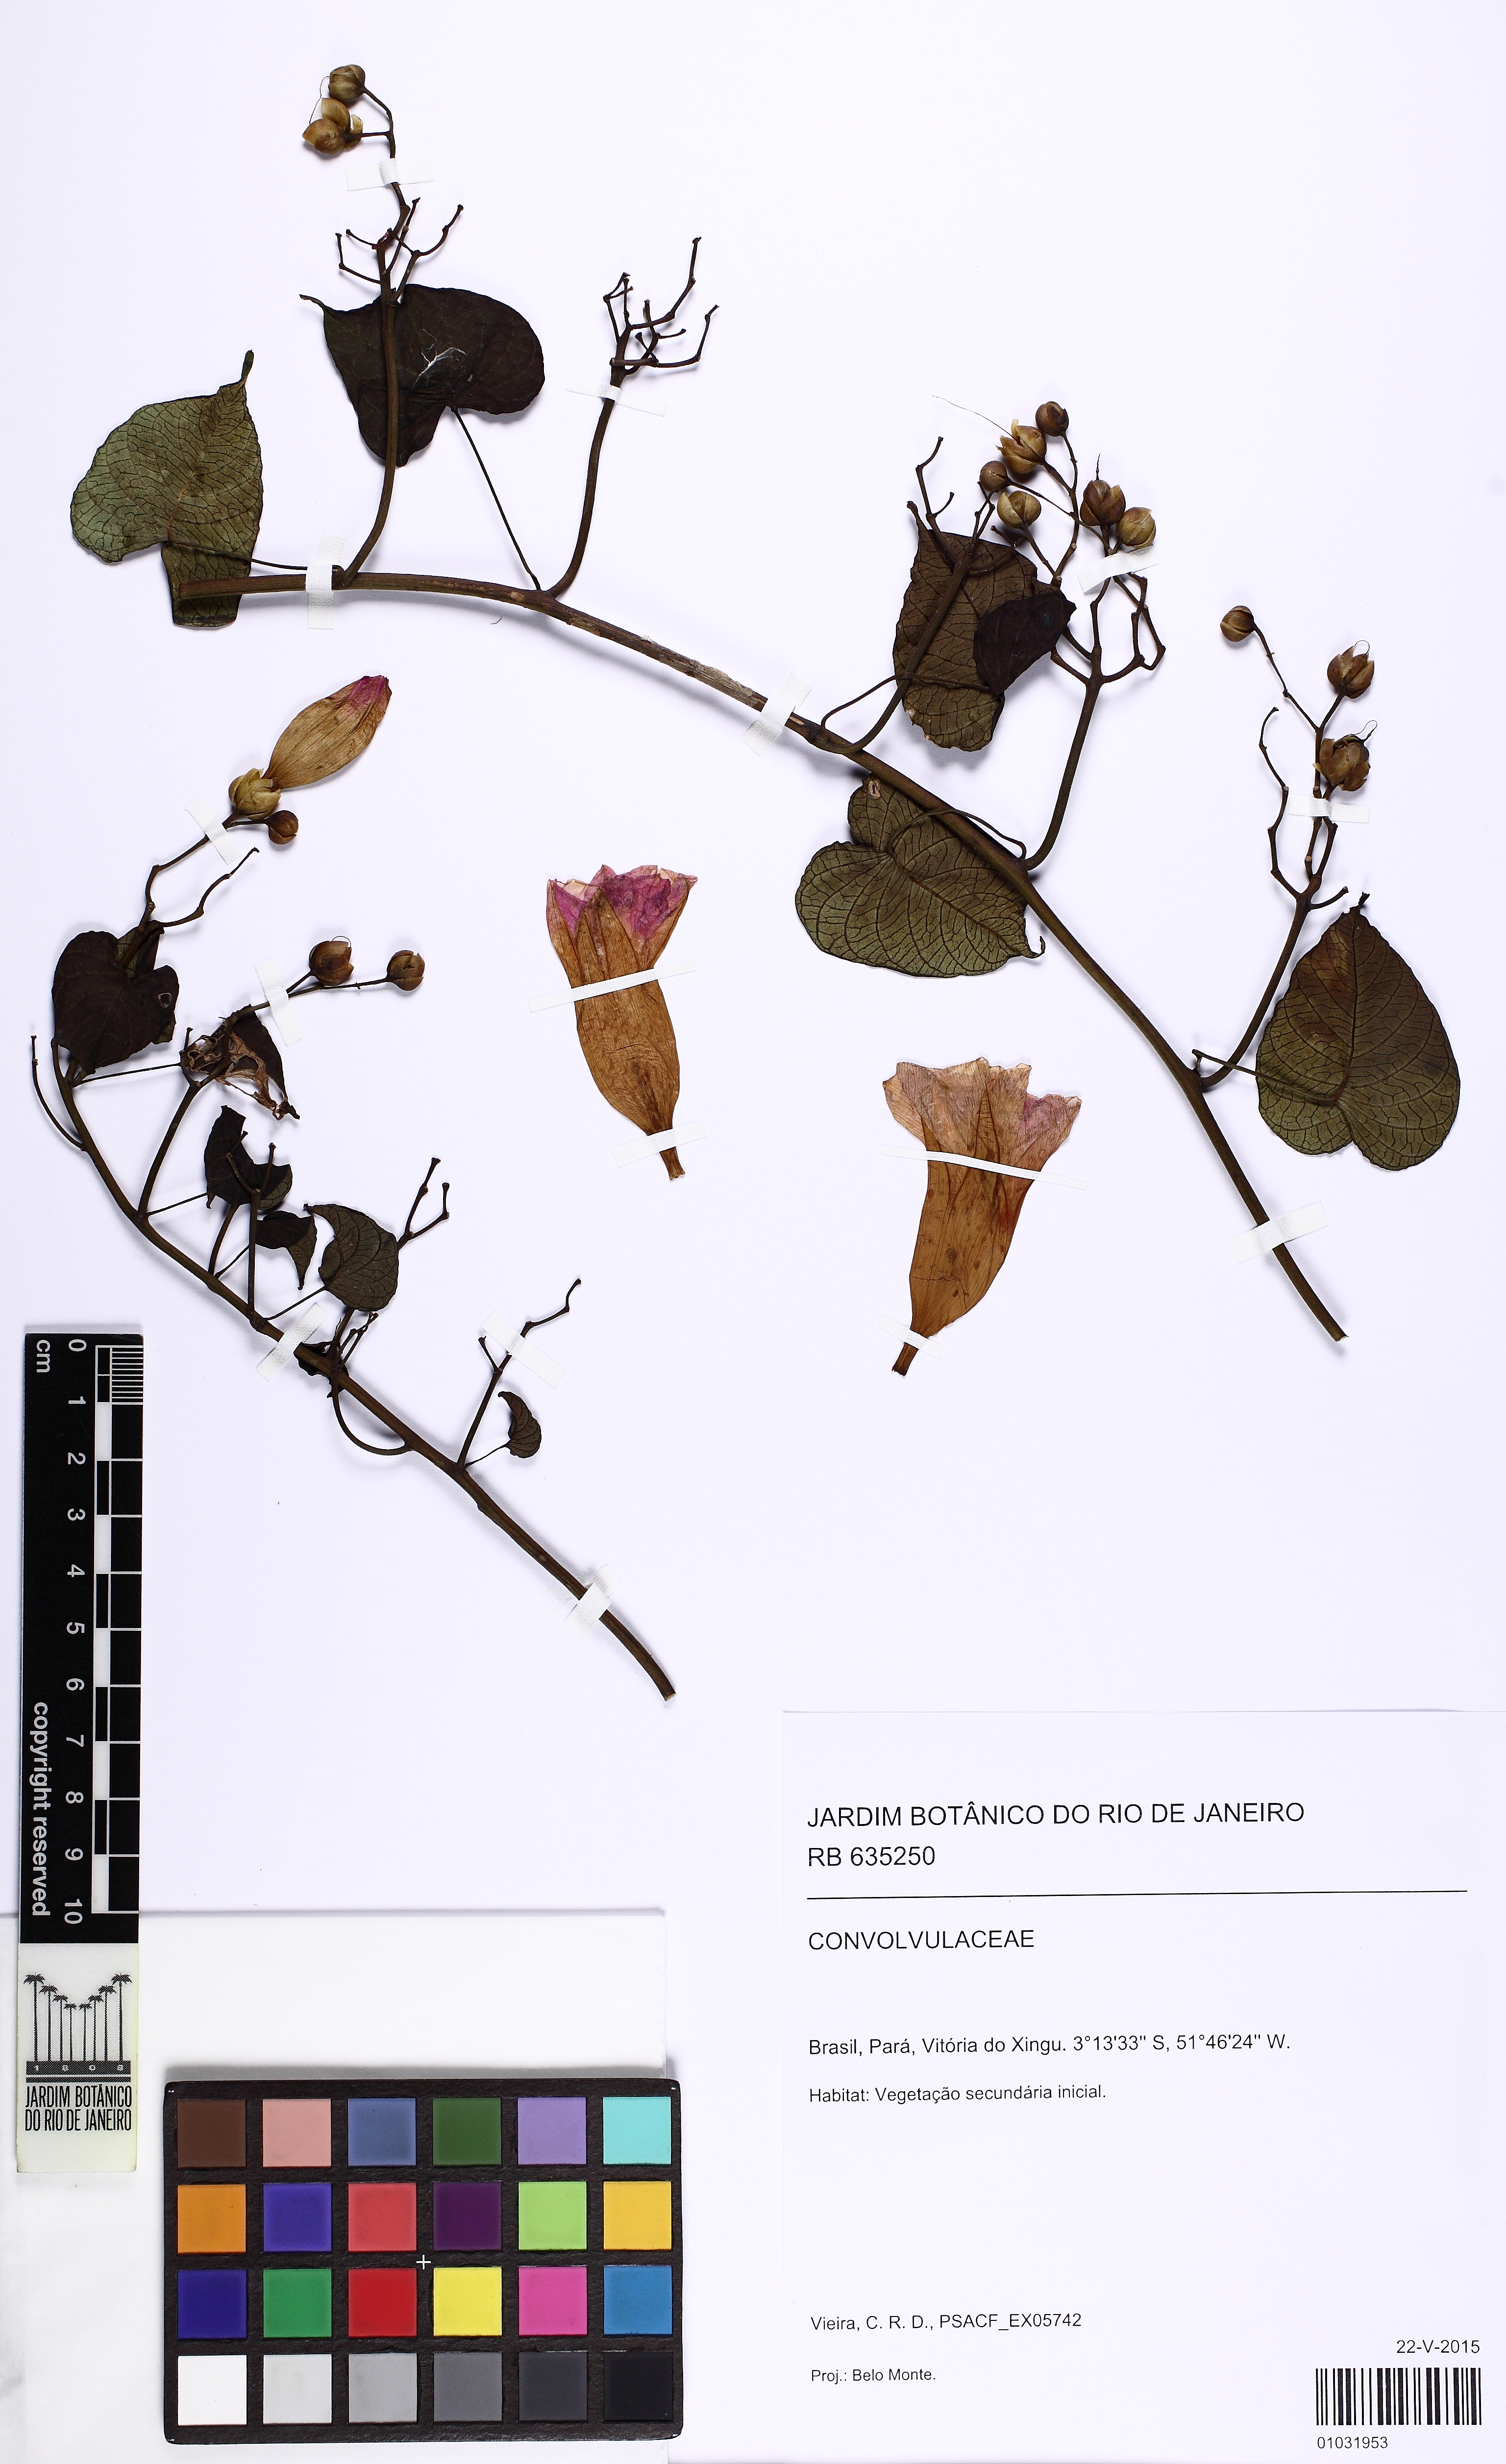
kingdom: Plantae
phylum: Tracheophyta
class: Magnoliopsida
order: Solanales
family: Convolvulaceae
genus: Ipomoea
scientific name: Ipomoea batatoides
